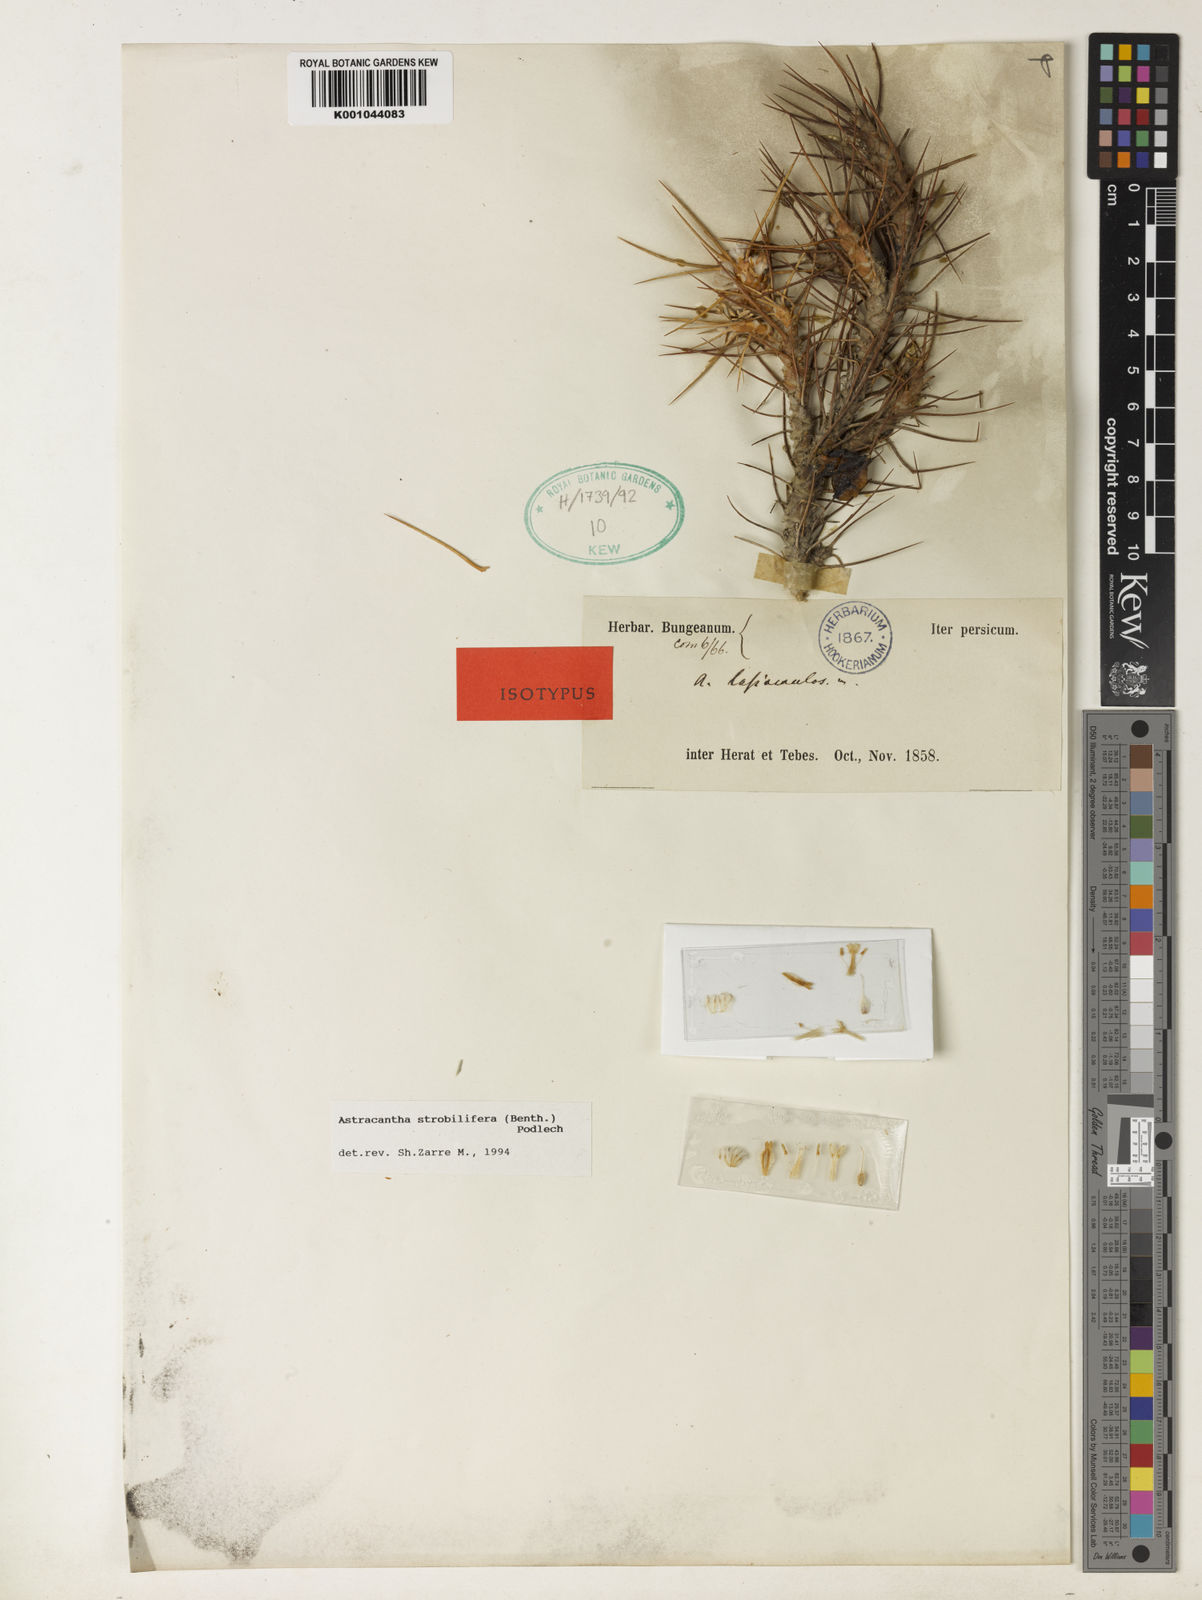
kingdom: Plantae
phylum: Tracheophyta
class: Magnoliopsida
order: Fabales
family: Fabaceae
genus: Astragalus
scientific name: Astragalus
